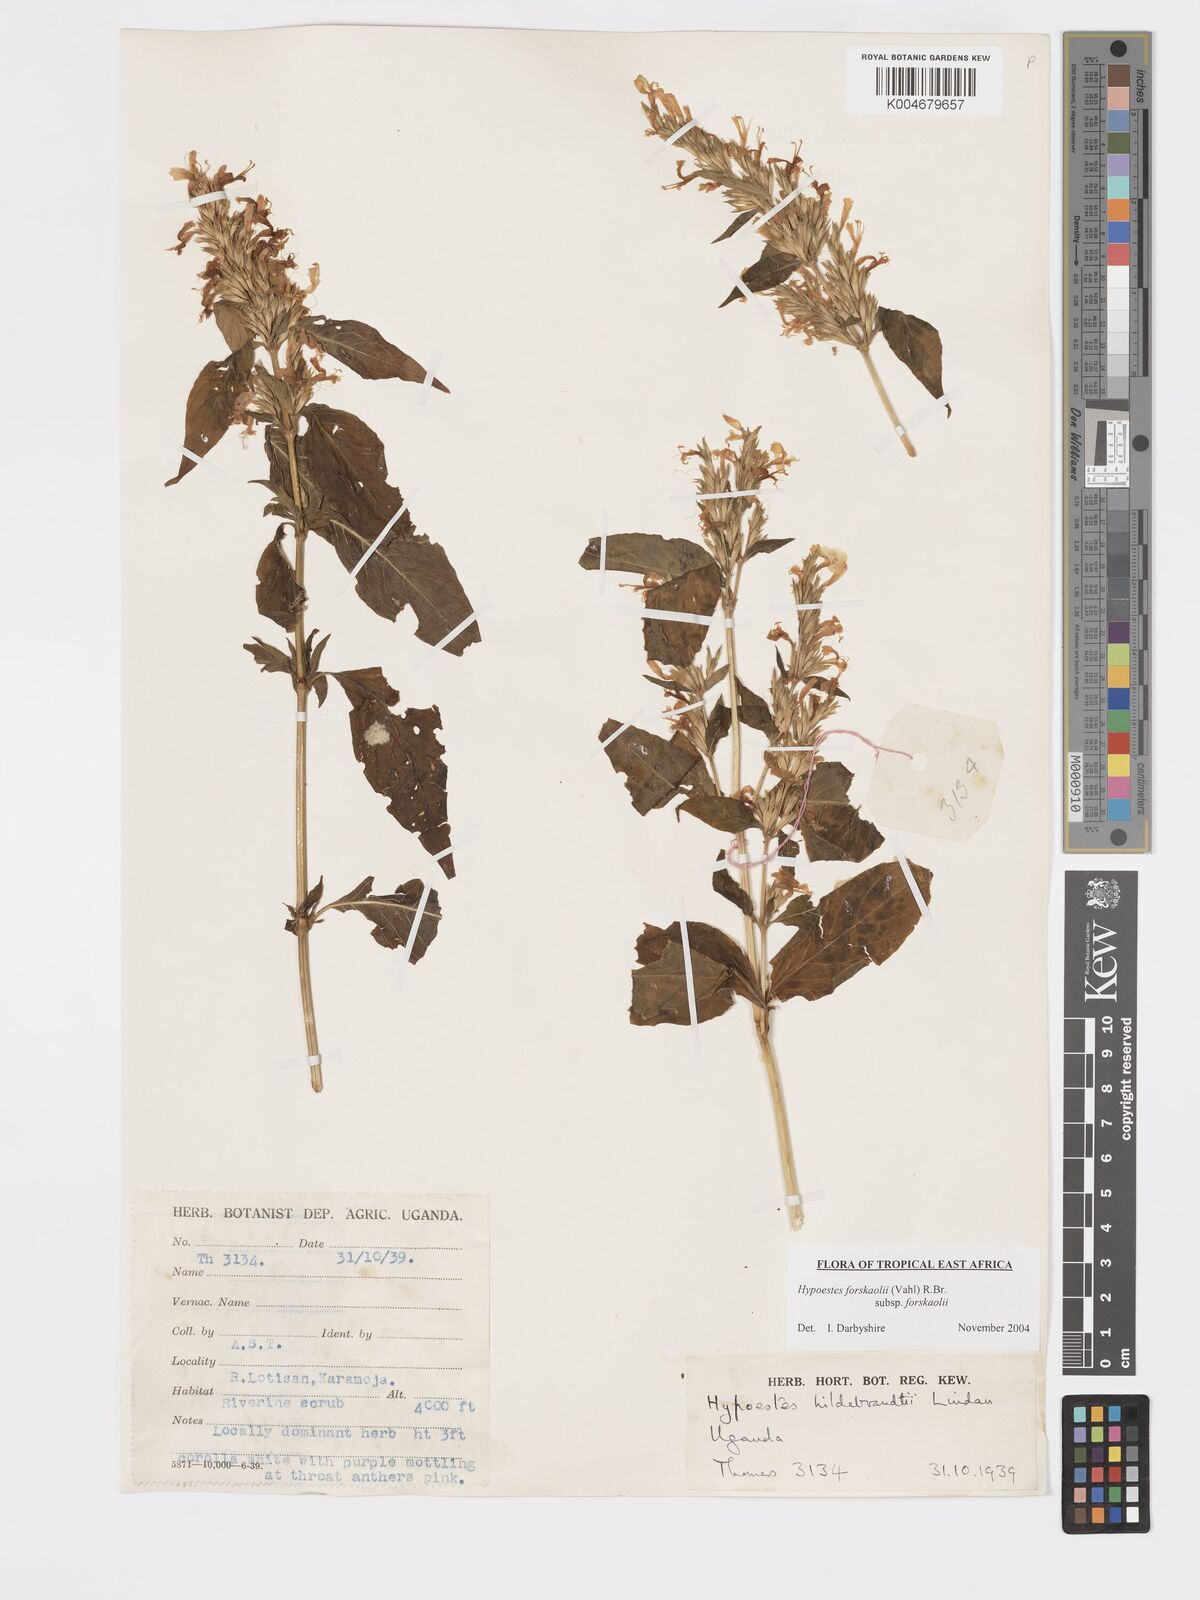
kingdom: Plantae
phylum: Tracheophyta
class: Magnoliopsida
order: Lamiales
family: Acanthaceae
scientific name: Acanthaceae
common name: Acanthaceae
